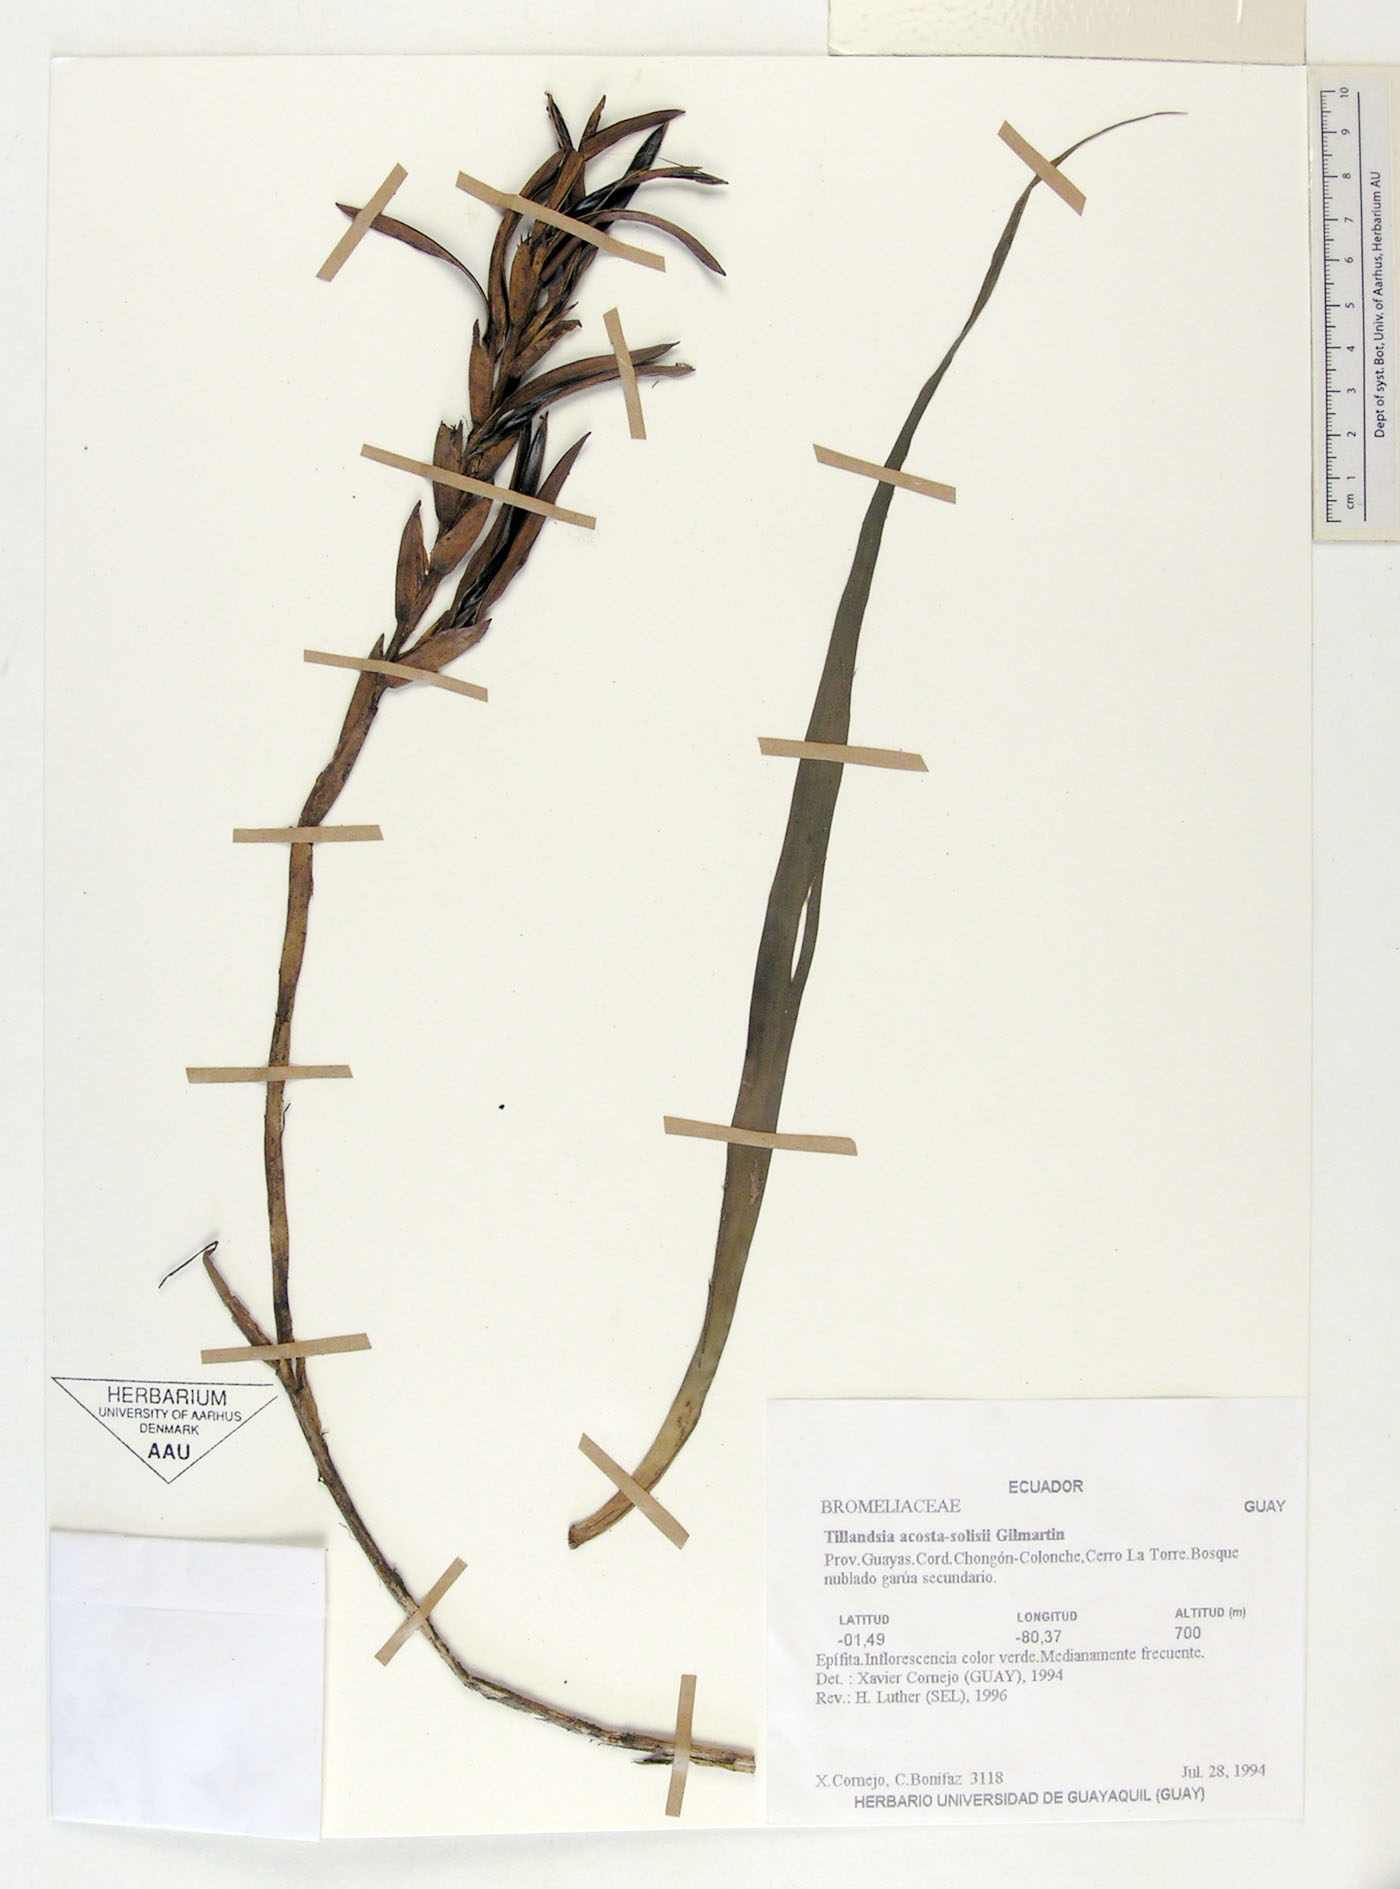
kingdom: Plantae
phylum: Tracheophyta
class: Liliopsida
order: Poales
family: Bromeliaceae
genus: Lemeltonia
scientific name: Lemeltonia acosta-solisii
